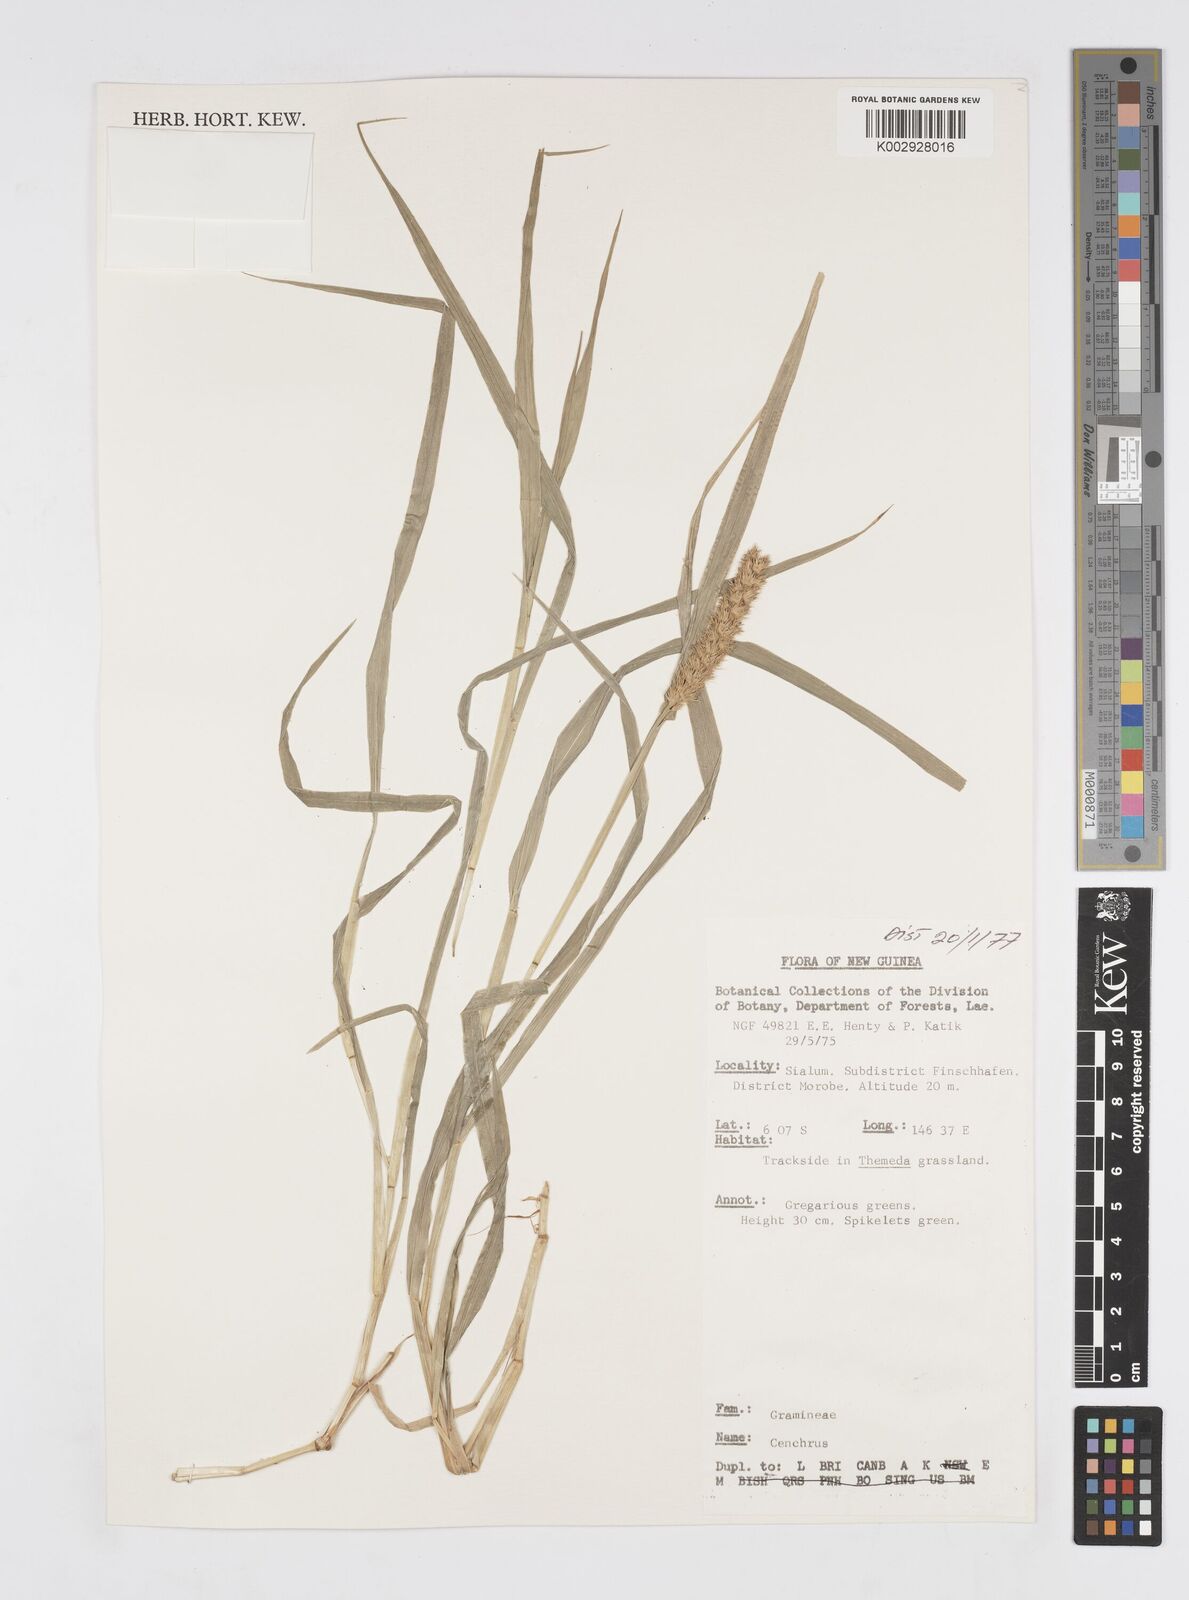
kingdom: Plantae
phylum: Tracheophyta
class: Liliopsida
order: Poales
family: Poaceae
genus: Cenchrus
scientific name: Cenchrus brownii
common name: Slim-bristle sandbur
